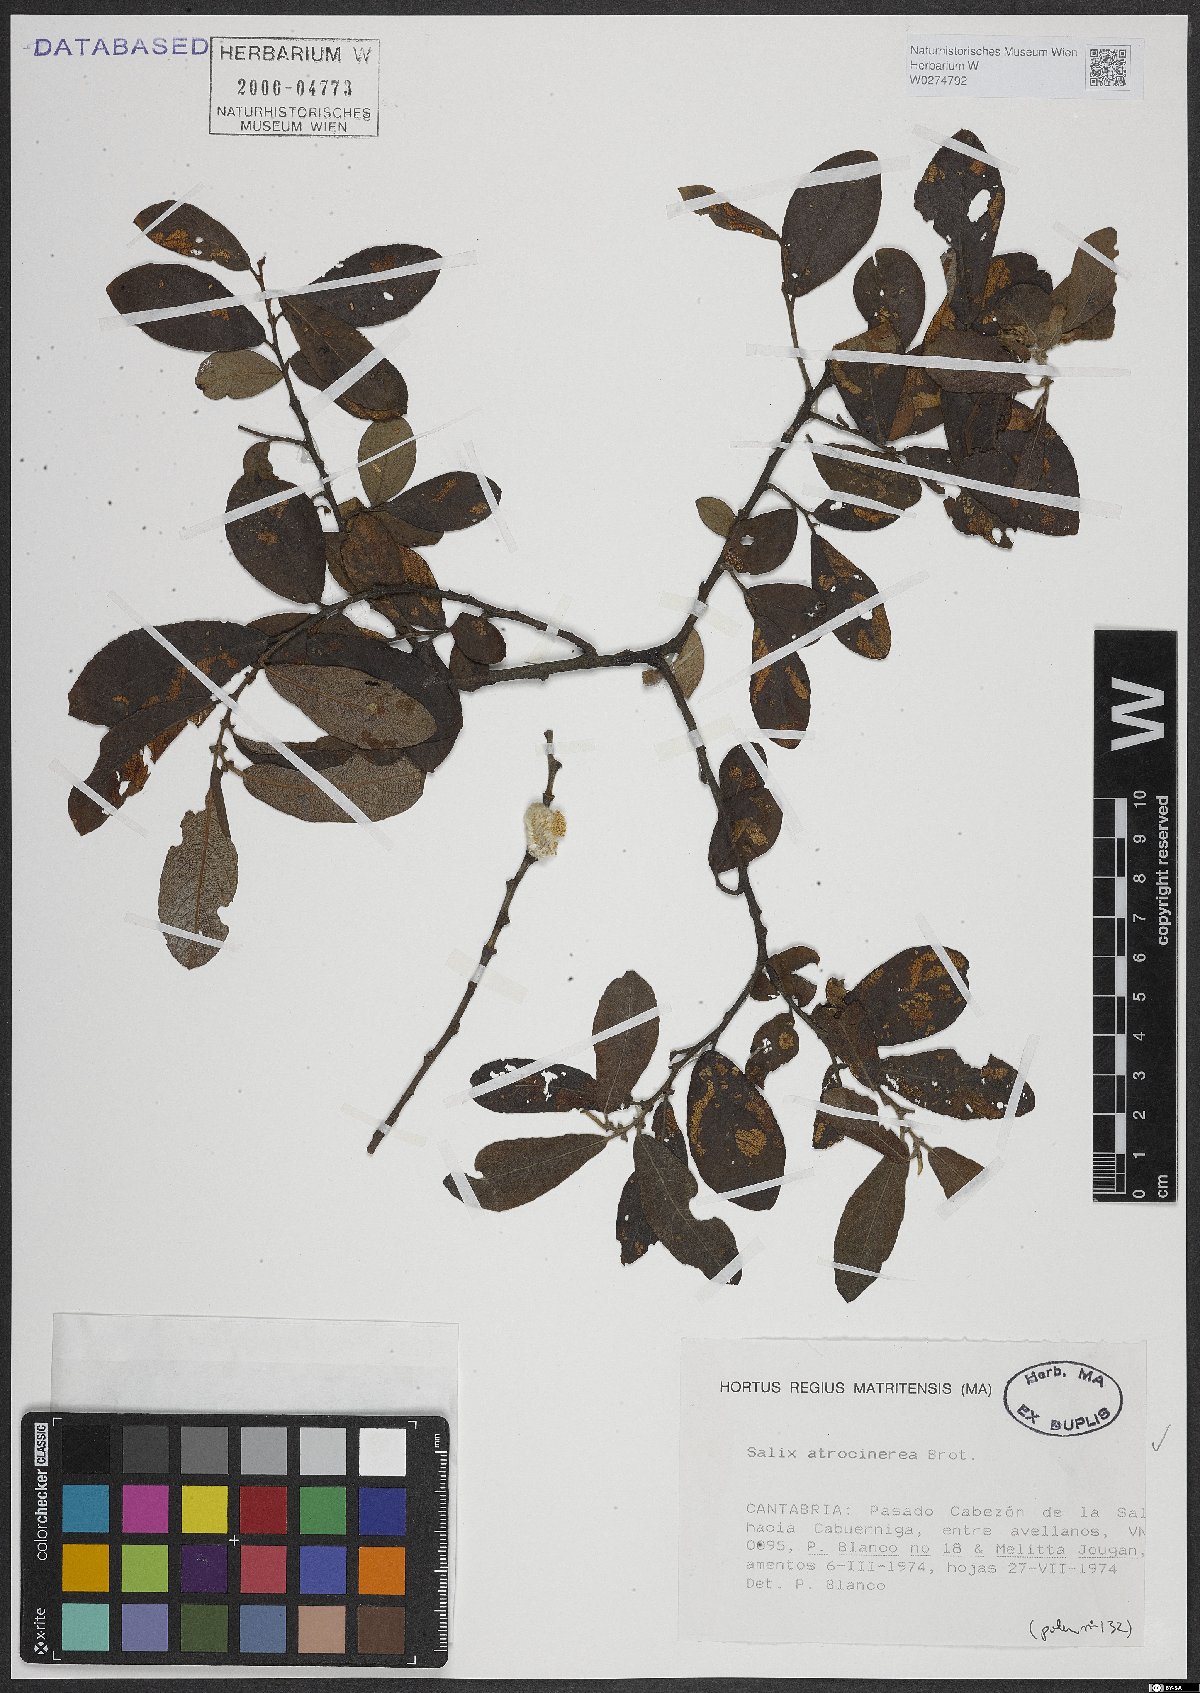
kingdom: Plantae
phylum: Tracheophyta
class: Magnoliopsida
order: Malpighiales
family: Salicaceae
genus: Salix
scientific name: Salix atrocinerea
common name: Rusty willow
